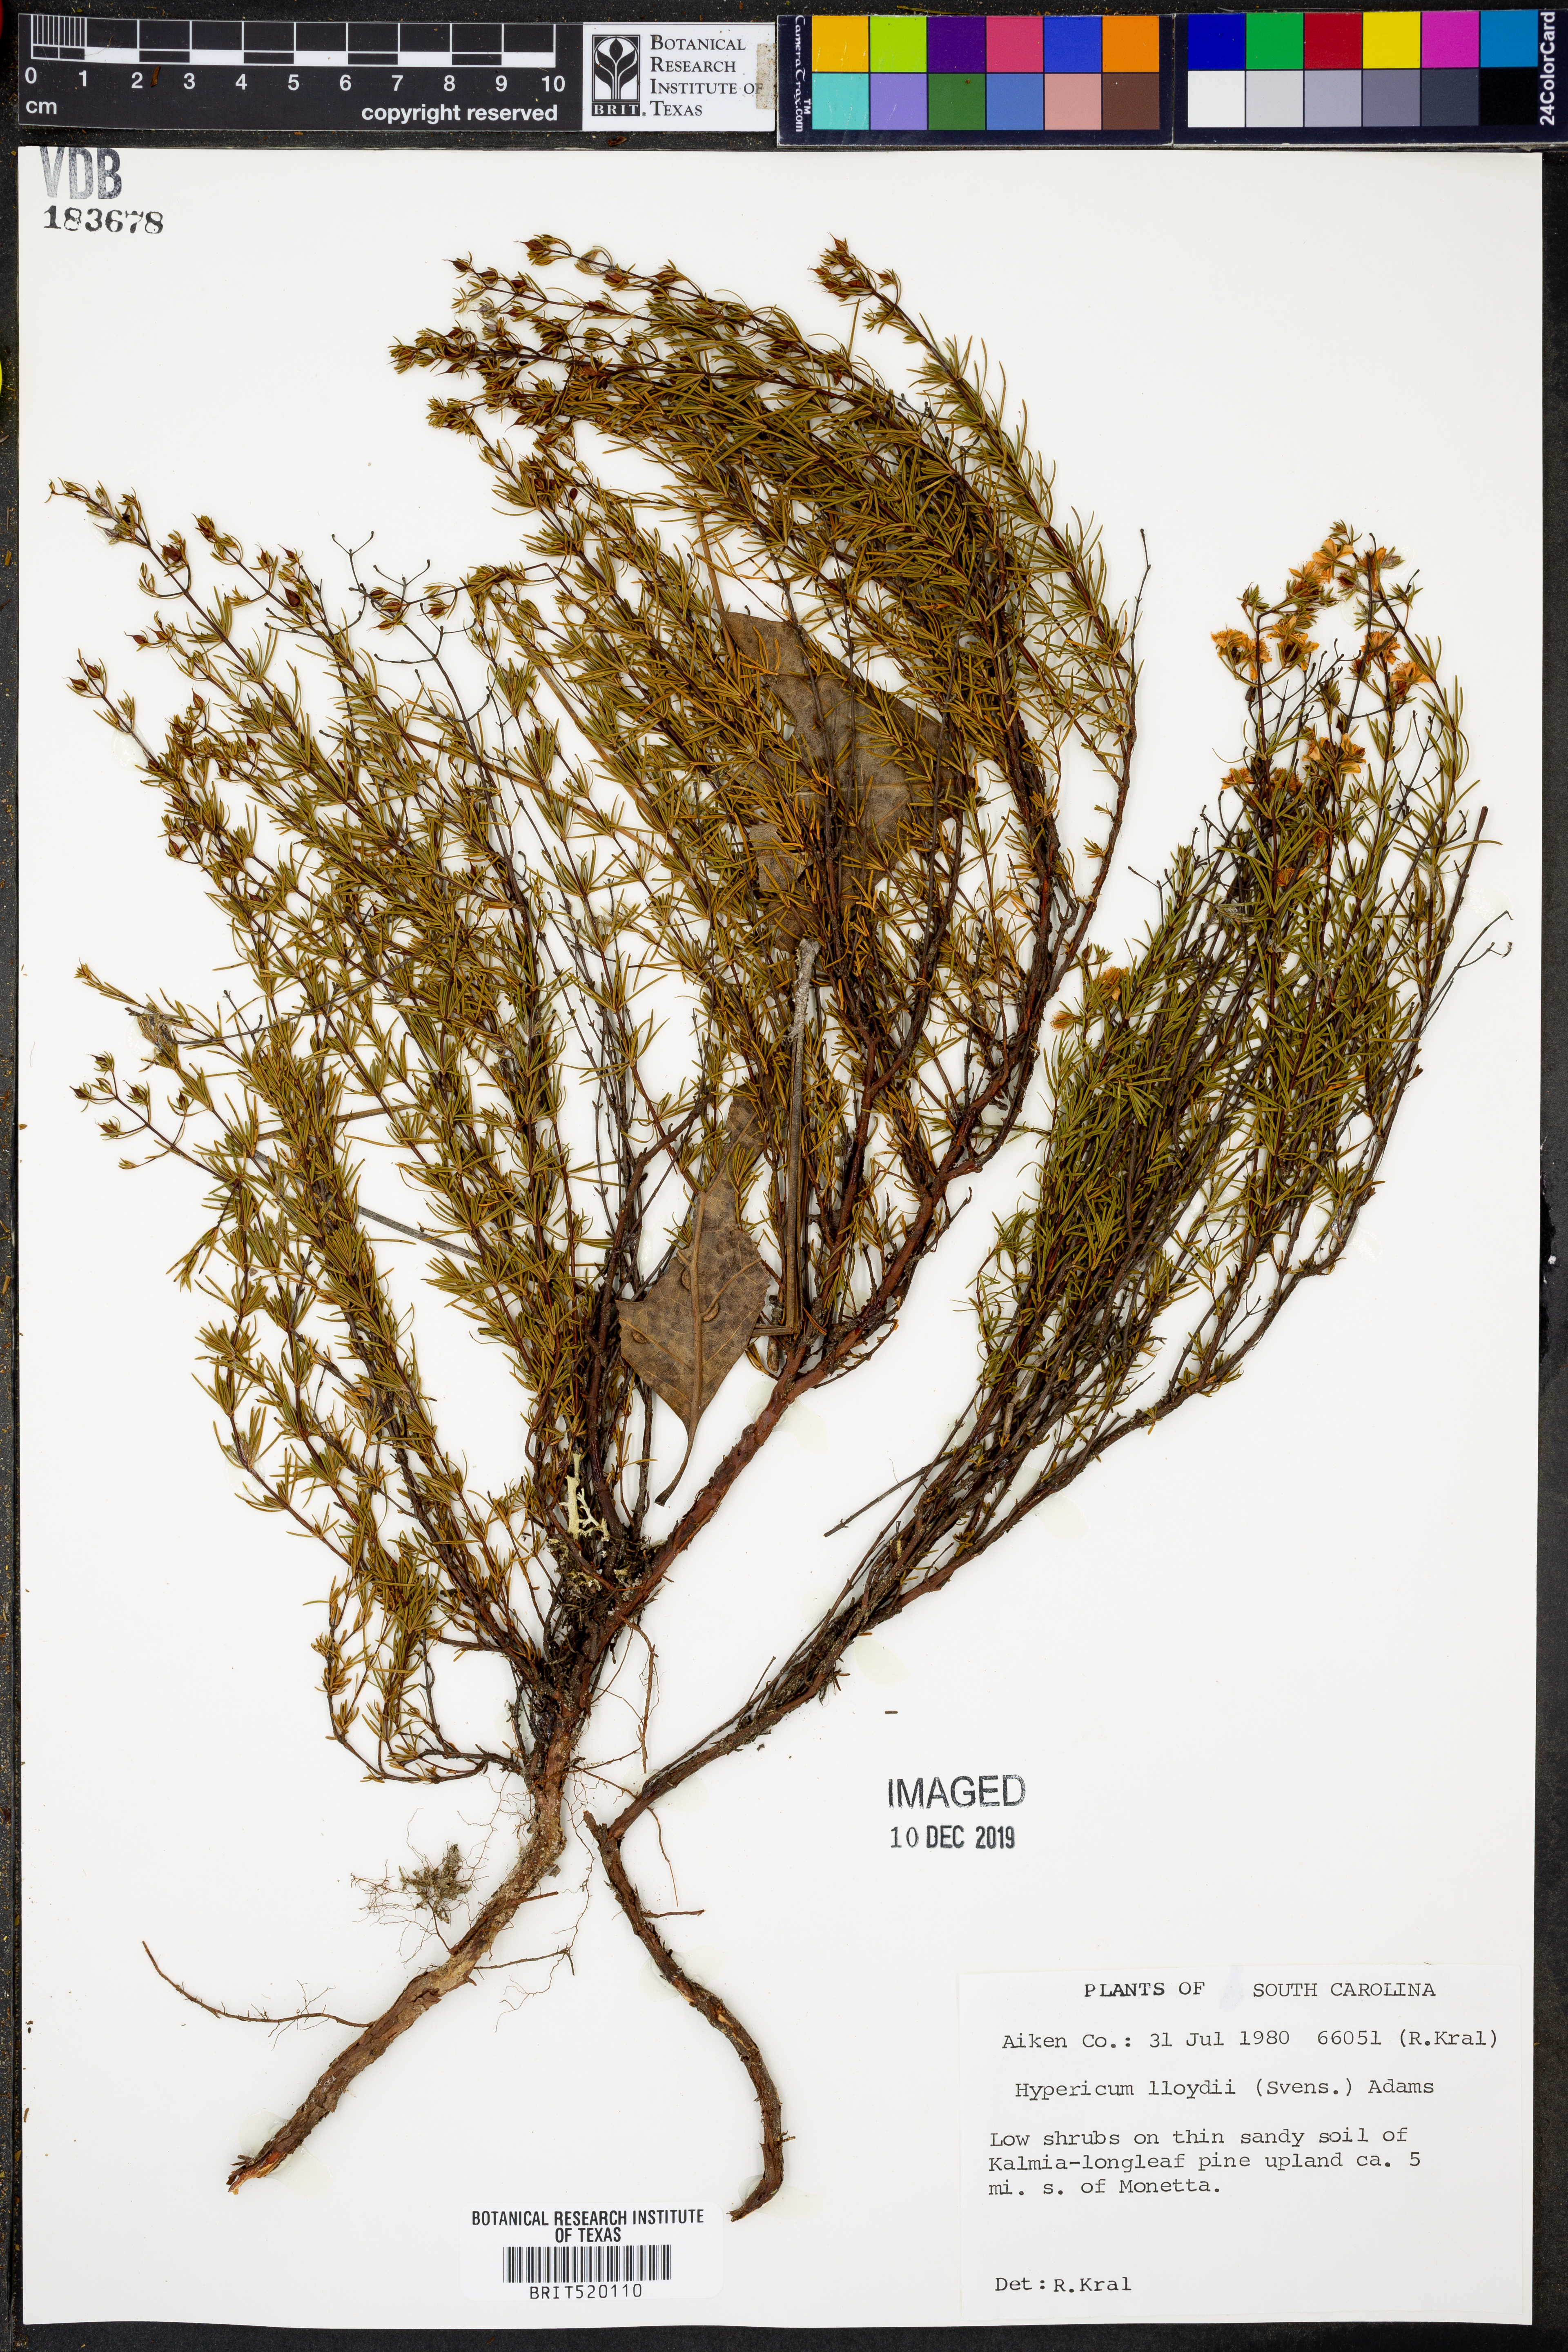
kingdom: Plantae
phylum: Tracheophyta
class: Magnoliopsida
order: Malpighiales
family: Hypericaceae
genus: Hypericum
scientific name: Hypericum lloydii
